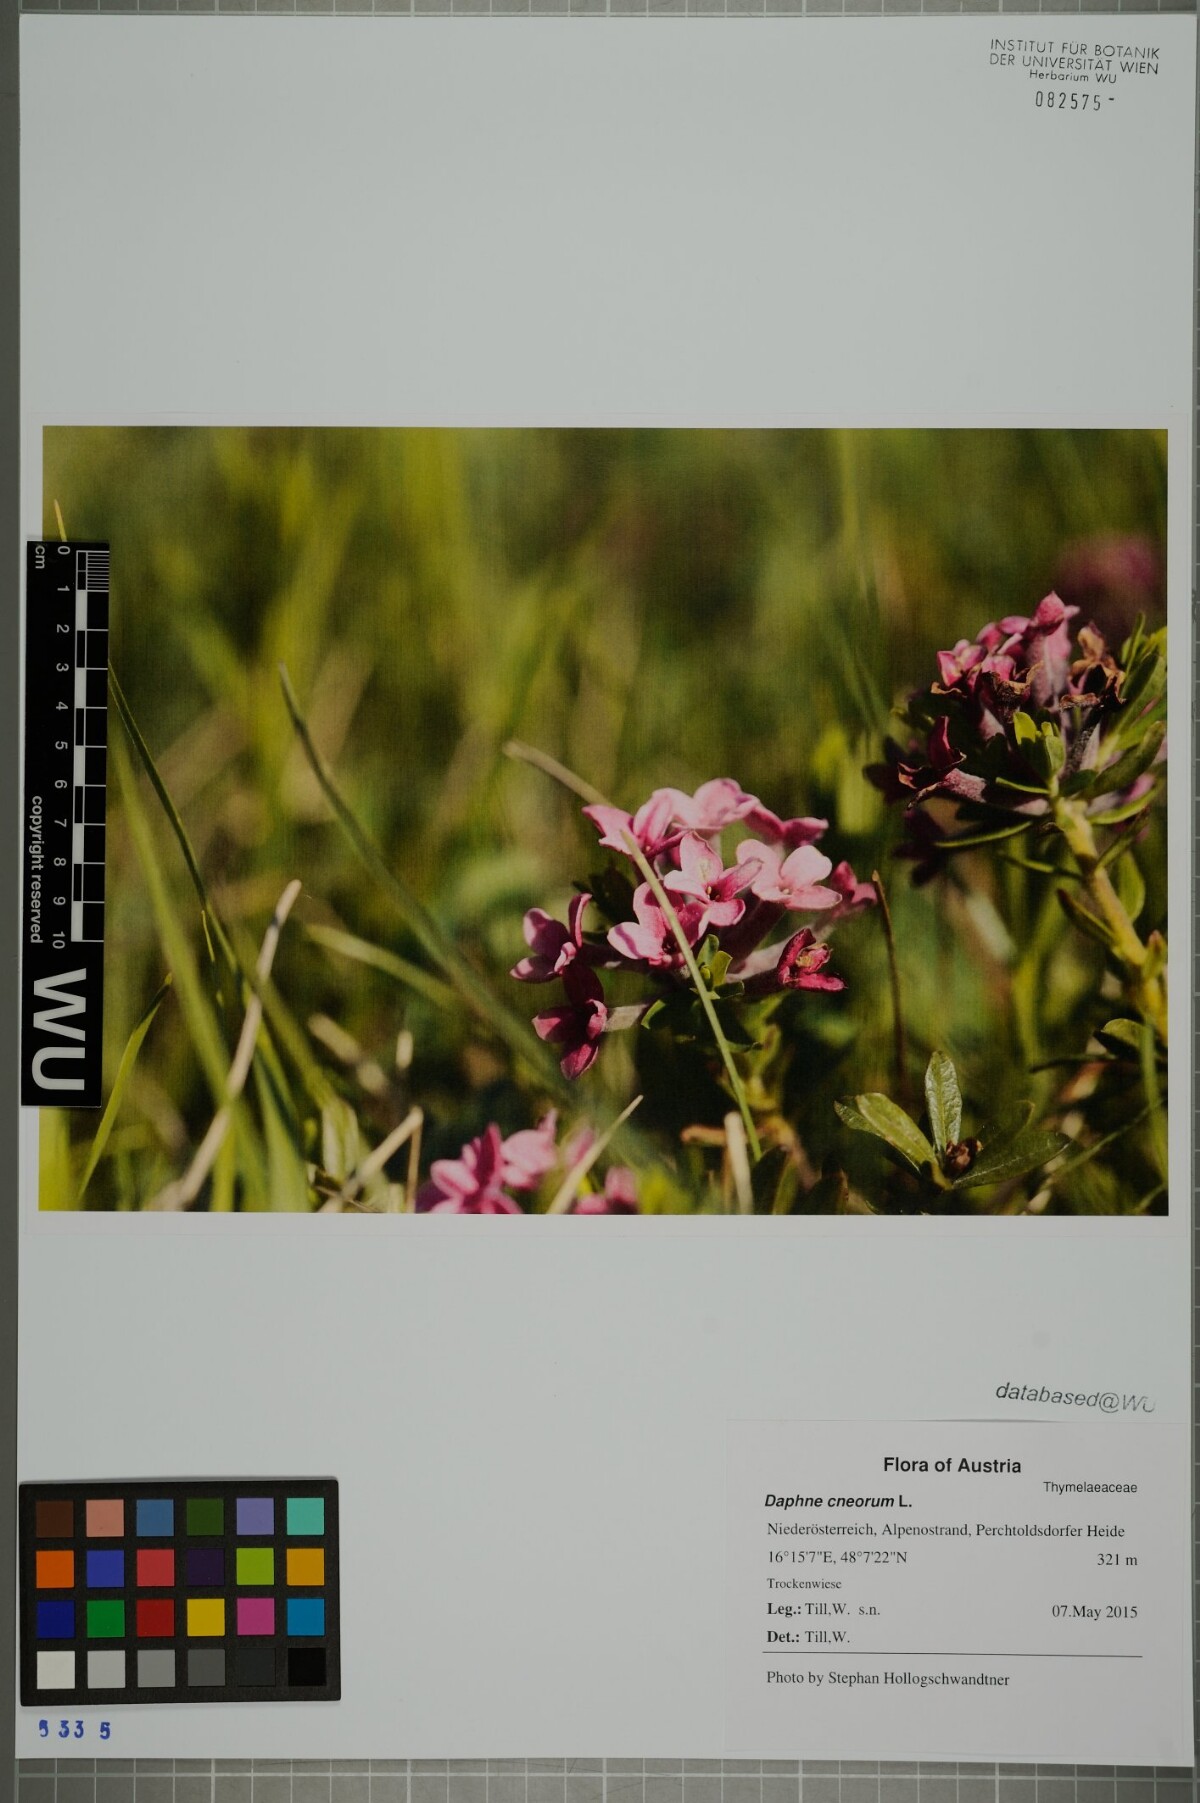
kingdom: Plantae
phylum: Tracheophyta
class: Magnoliopsida
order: Malvales
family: Thymelaeaceae
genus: Daphne
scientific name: Daphne cneorum
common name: Garland-flower
